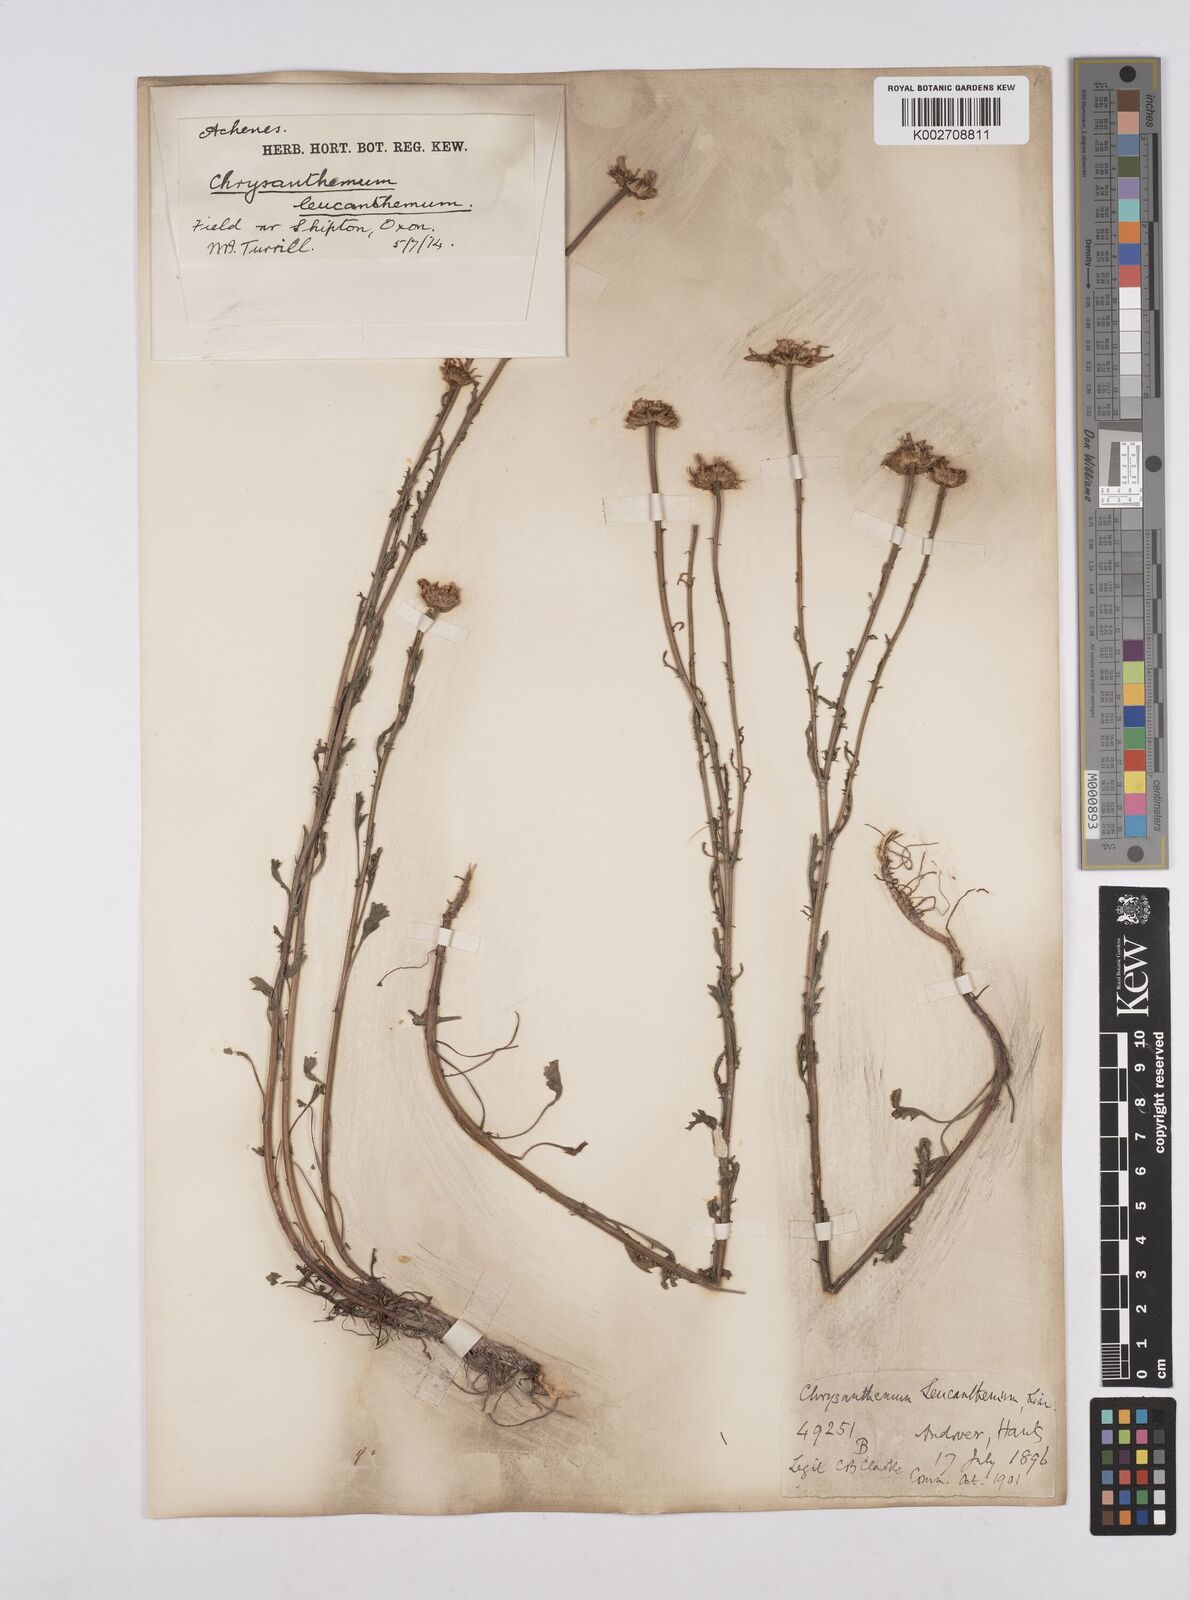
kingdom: Plantae
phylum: Tracheophyta
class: Magnoliopsida
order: Asterales
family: Asteraceae
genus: Leucanthemum
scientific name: Leucanthemum vulgare
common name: Oxeye daisy
